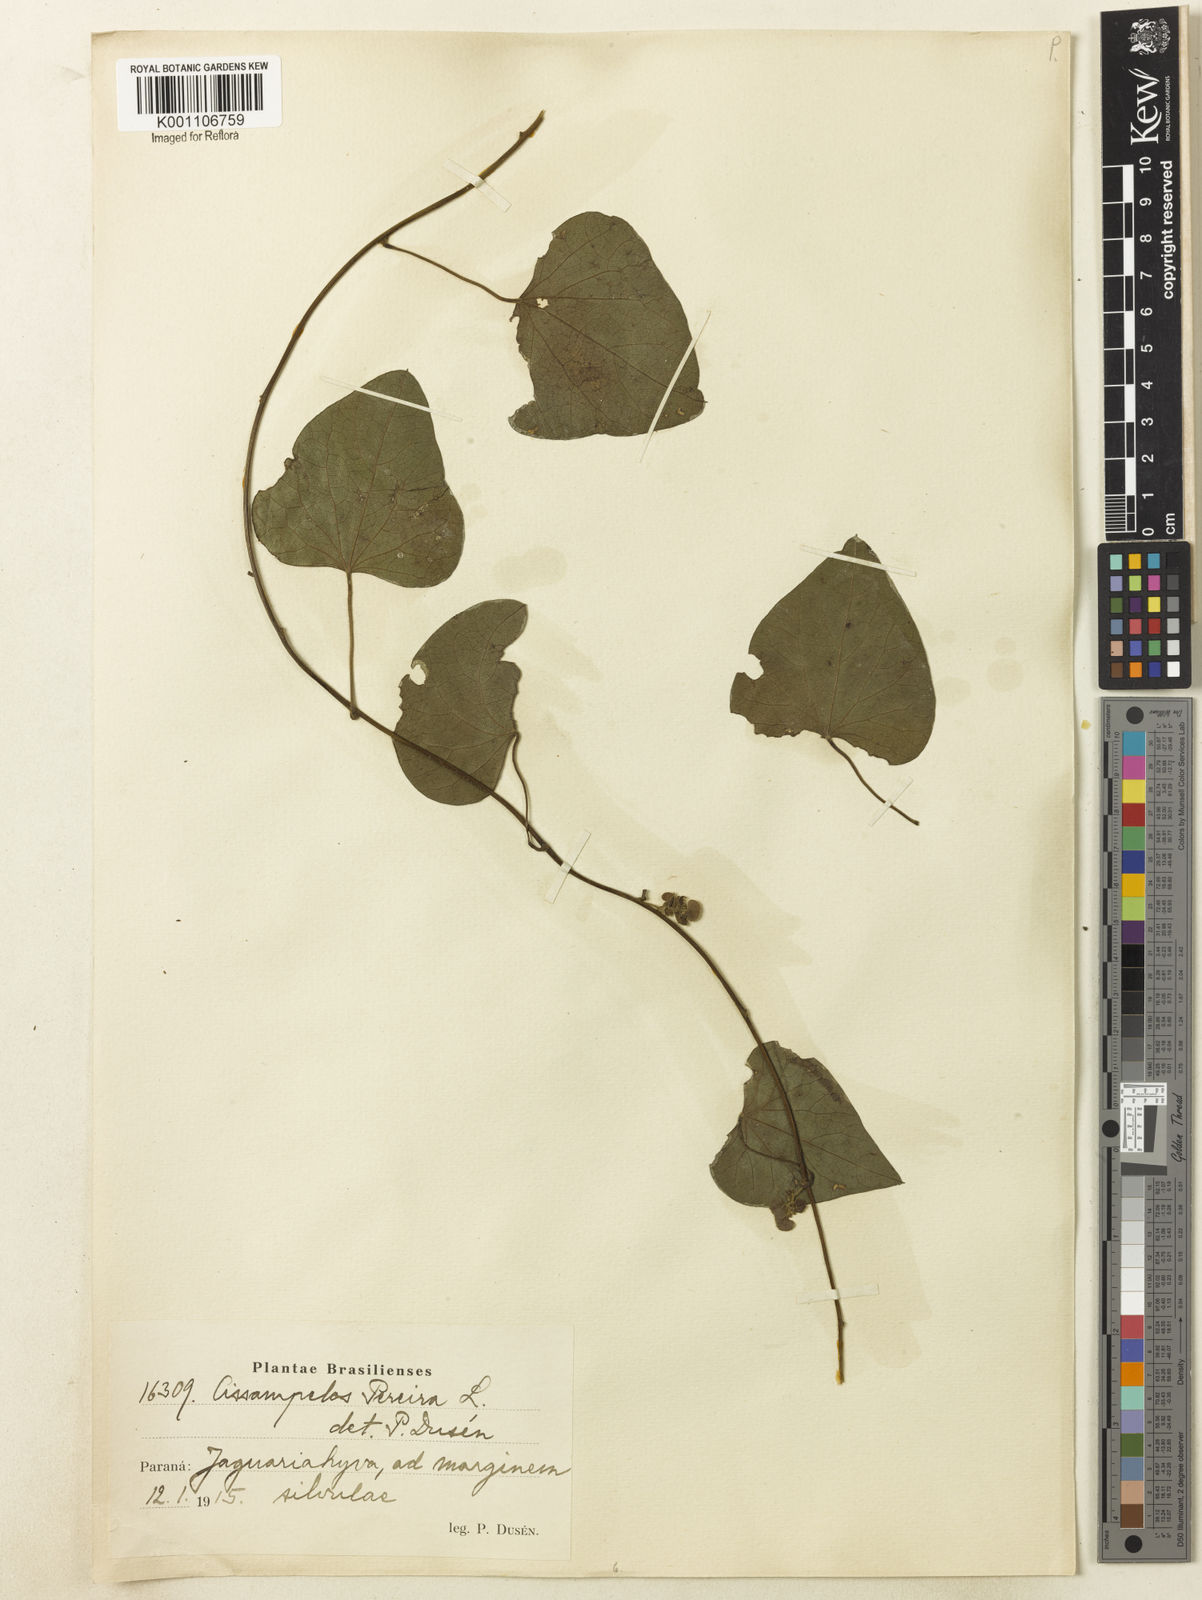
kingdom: Plantae
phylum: Tracheophyta
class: Magnoliopsida
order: Ranunculales
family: Menispermaceae
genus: Cissampelos
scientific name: Cissampelos pareira
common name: Velvetleaf
